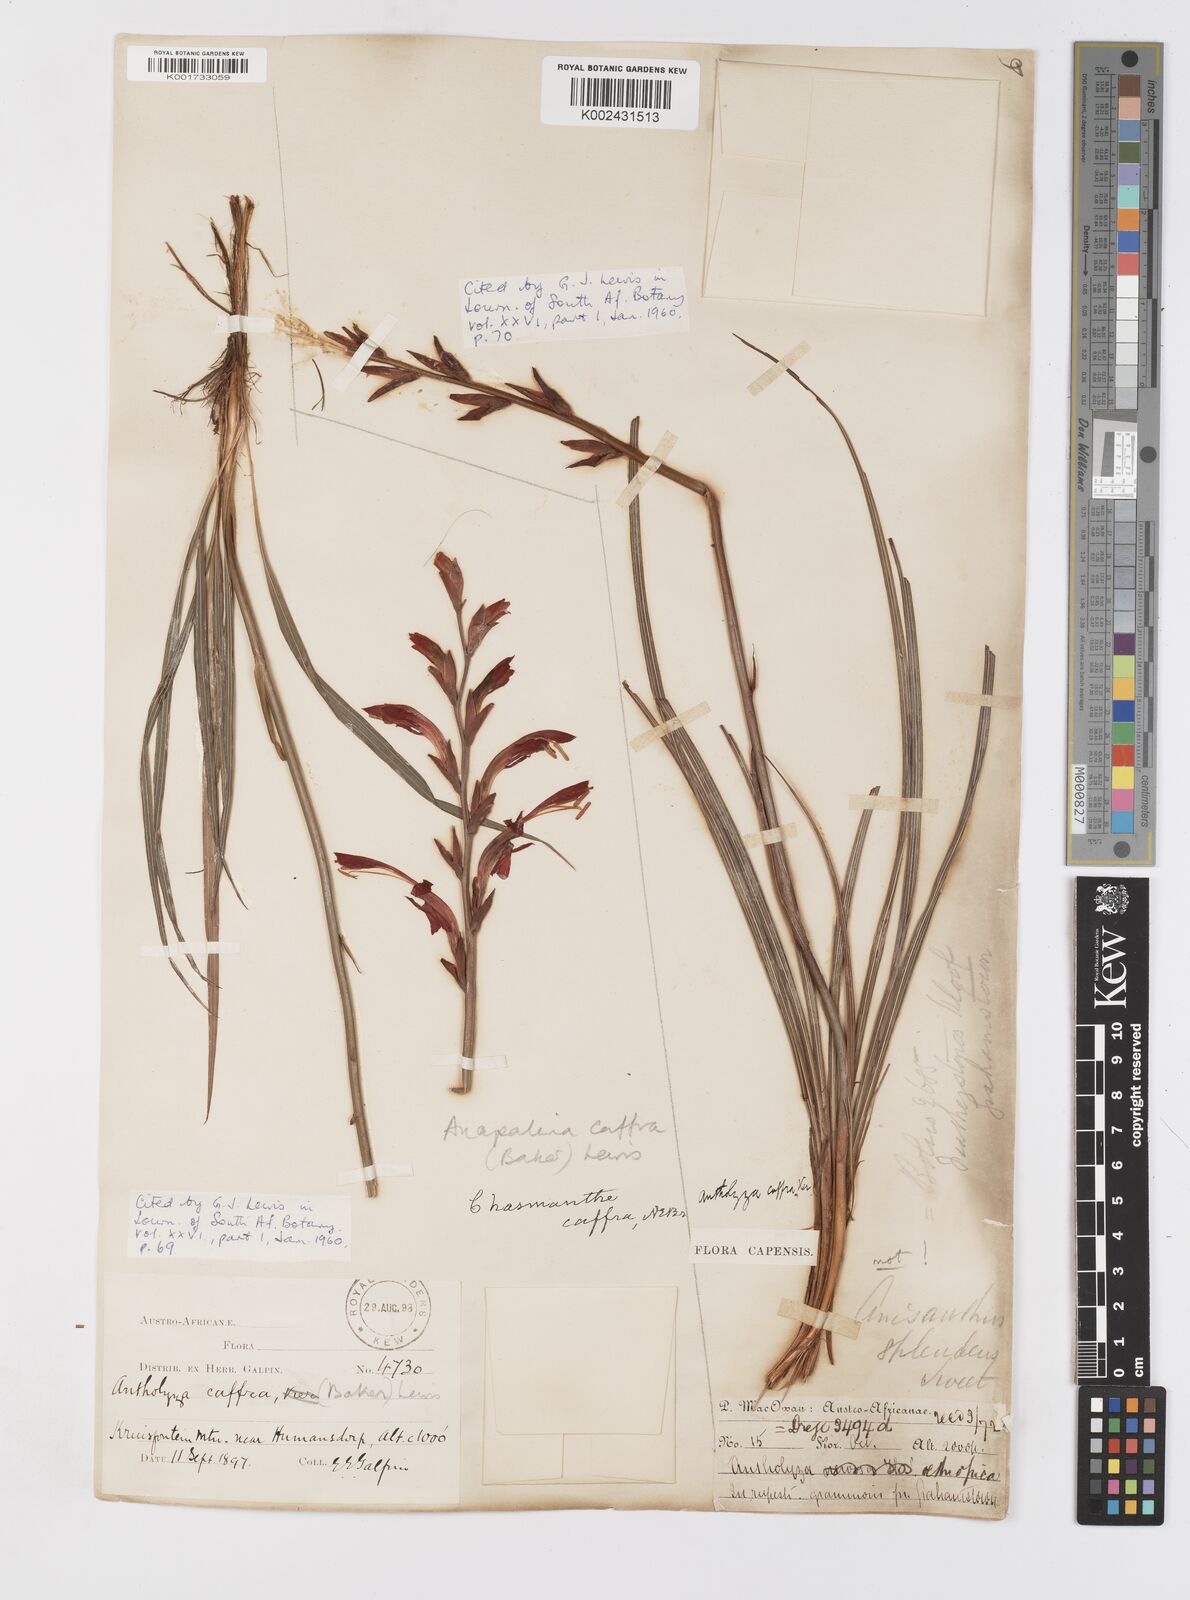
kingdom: Plantae
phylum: Tracheophyta
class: Liliopsida
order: Asparagales
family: Iridaceae
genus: Tritoniopsis
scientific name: Tritoniopsis caffra
